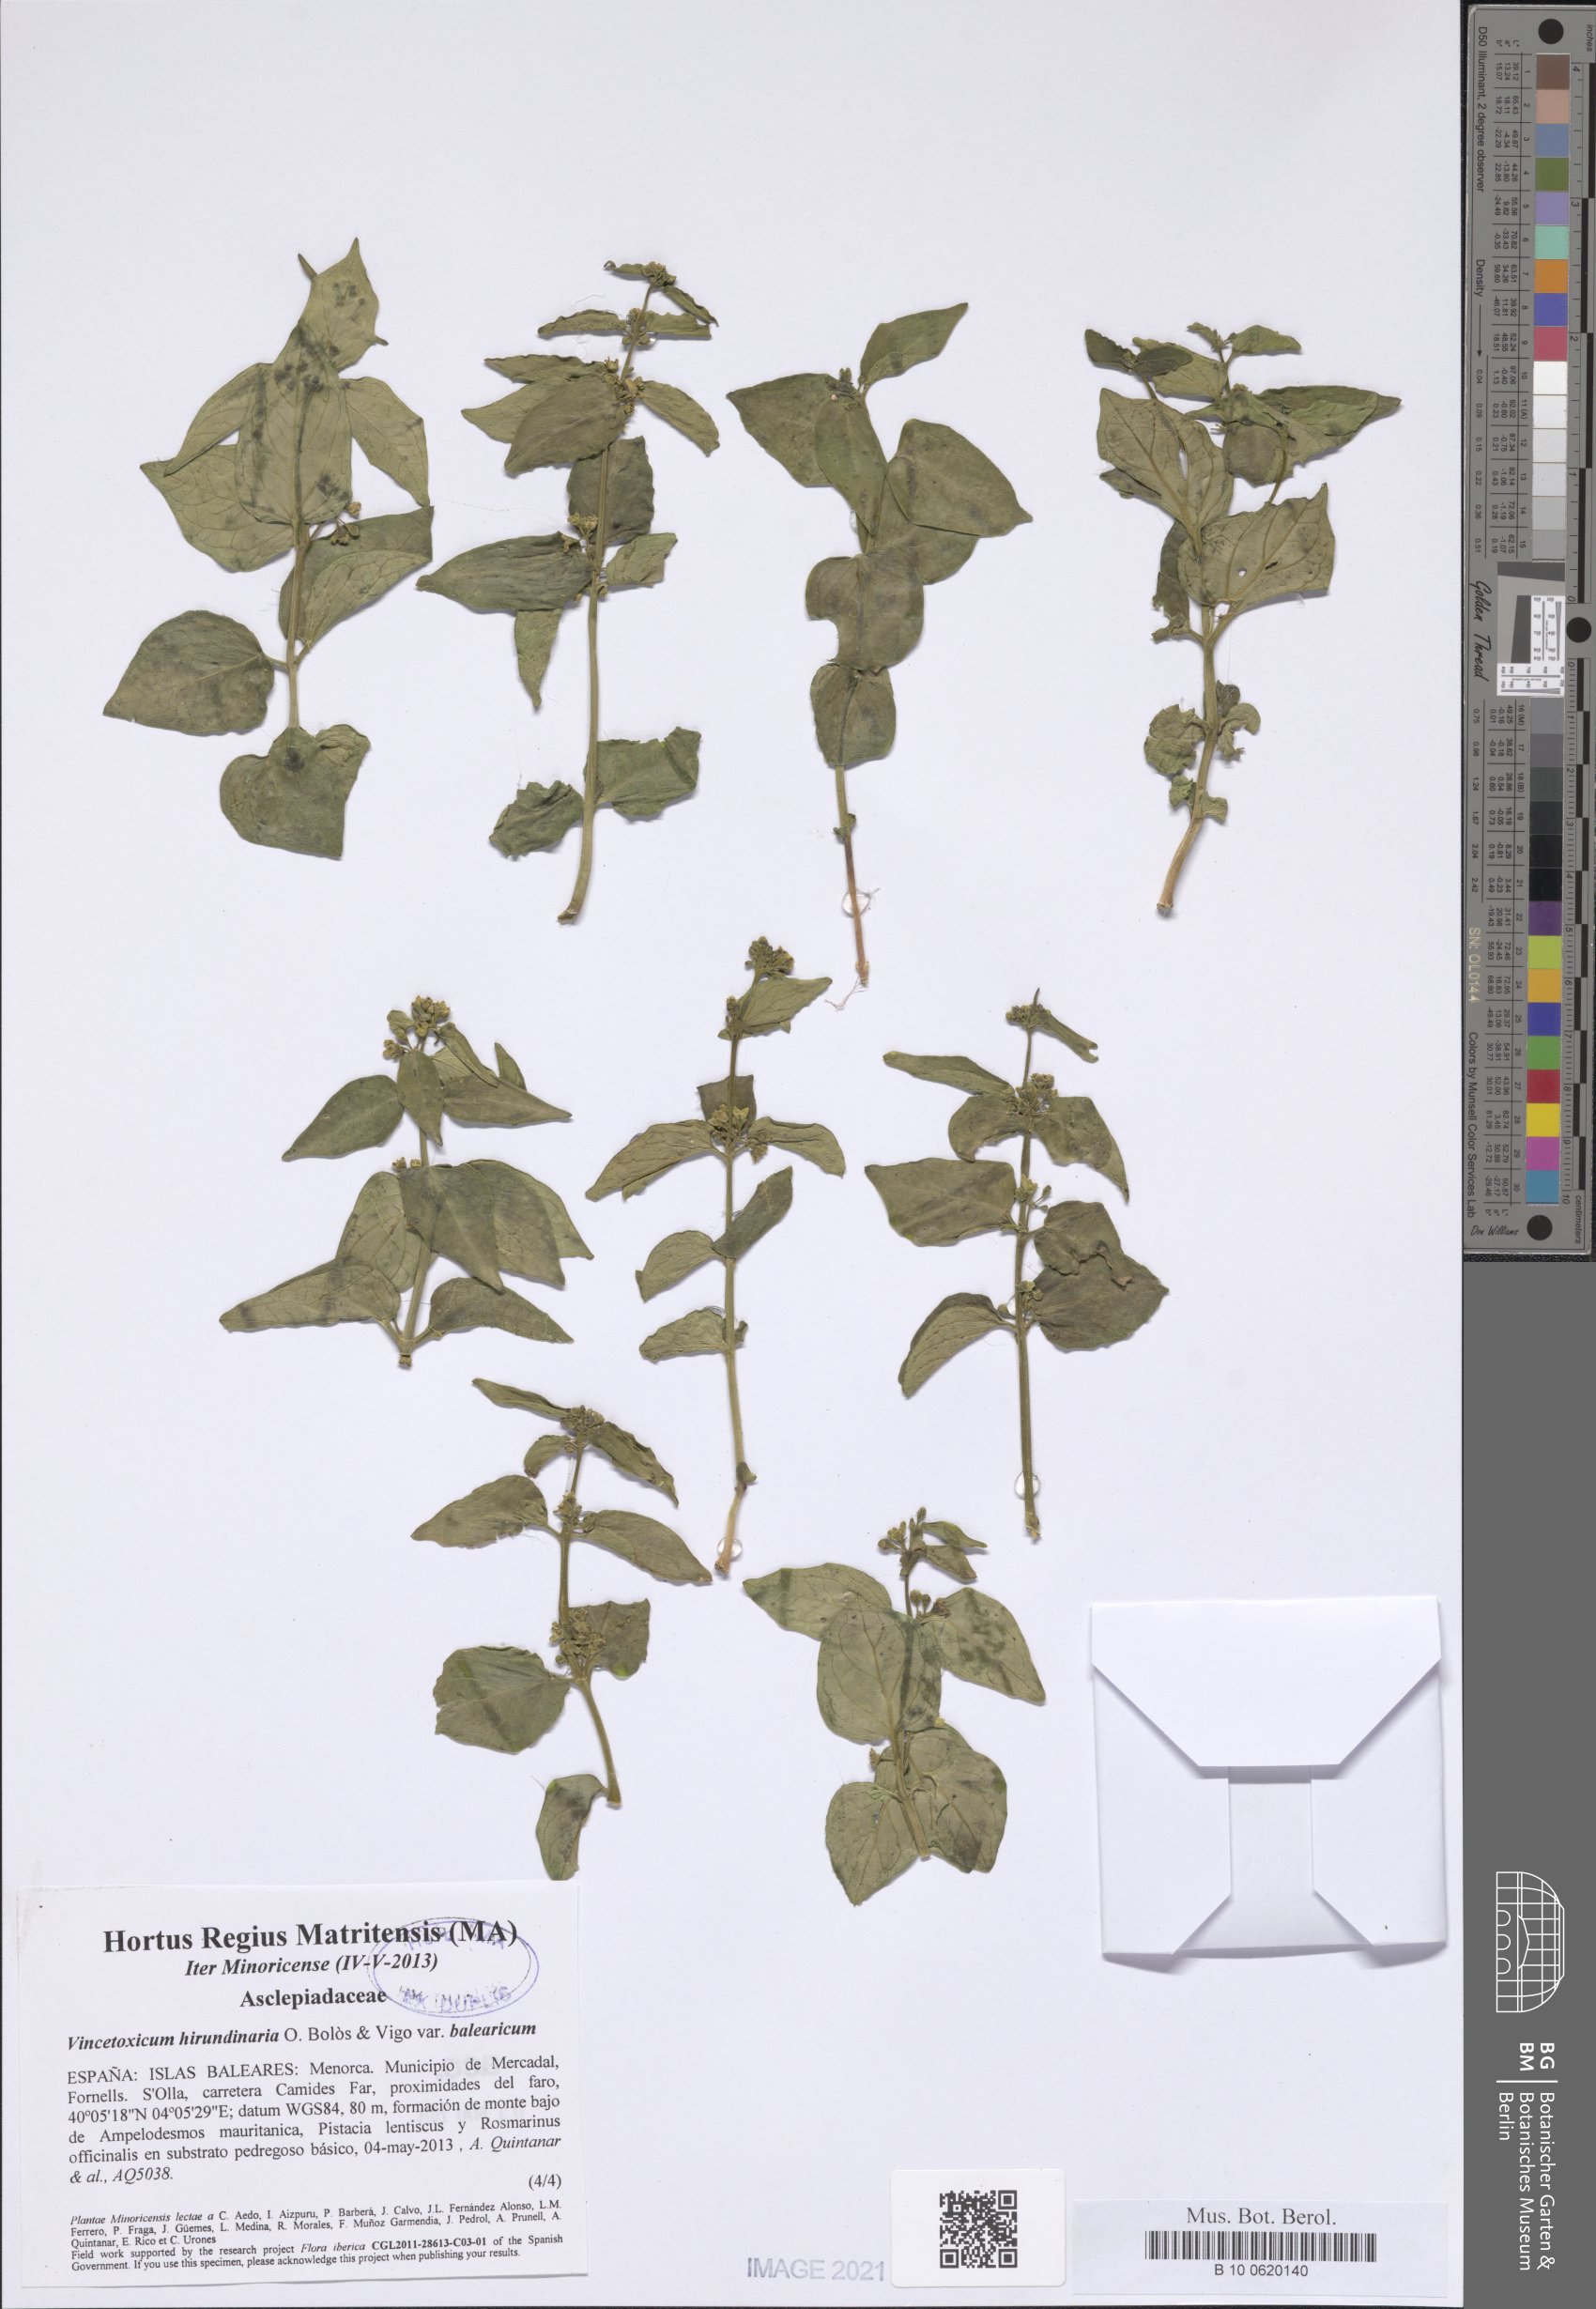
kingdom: Plantae
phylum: Tracheophyta
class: Magnoliopsida
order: Gentianales
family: Apocynaceae
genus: Vincetoxicum
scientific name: Vincetoxicum hirundinaria
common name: White swallowwort
